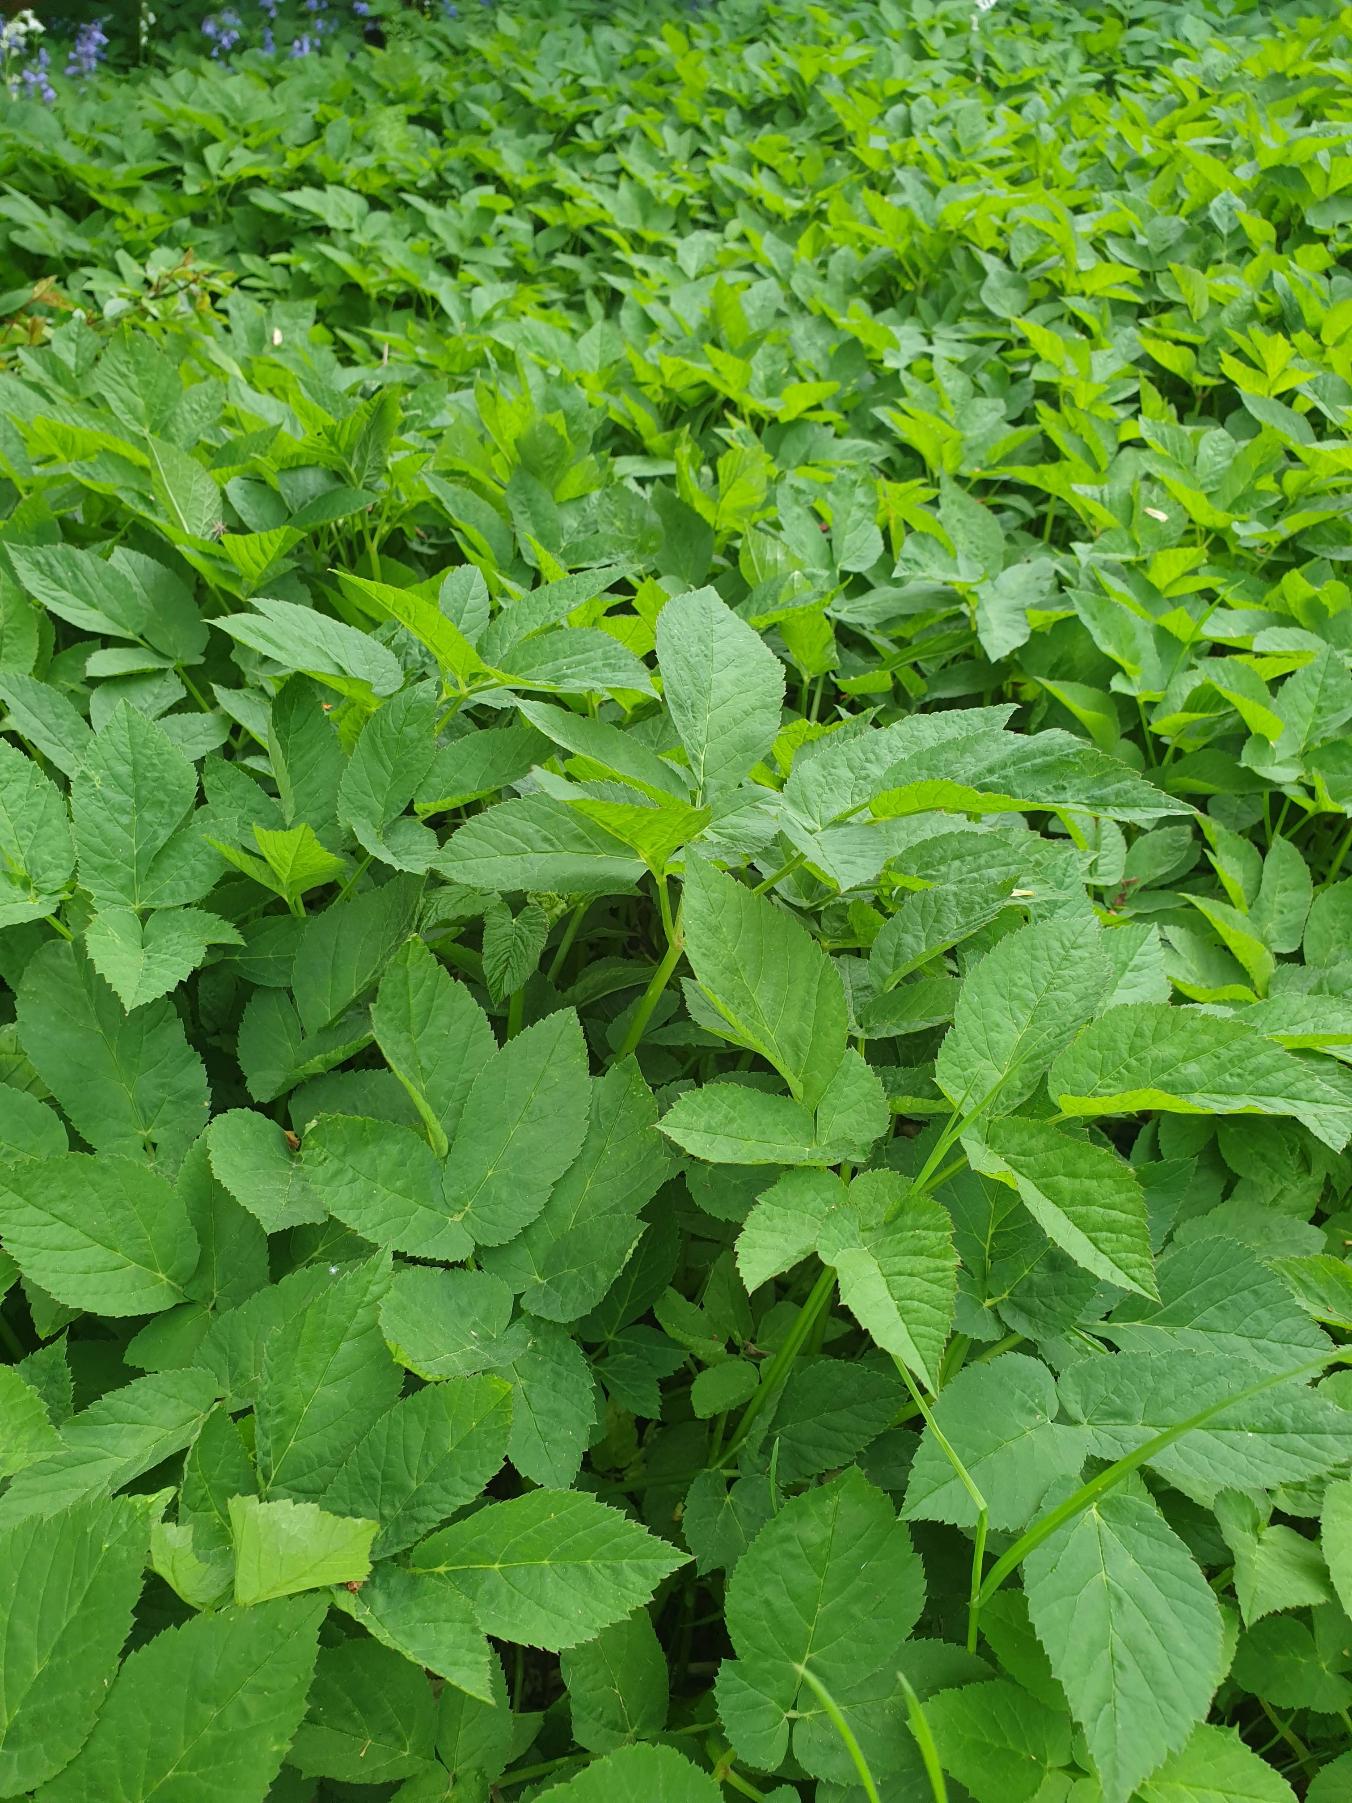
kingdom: Plantae
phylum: Tracheophyta
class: Magnoliopsida
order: Apiales
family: Apiaceae
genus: Aegopodium
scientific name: Aegopodium podagraria
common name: Skvalderkål
